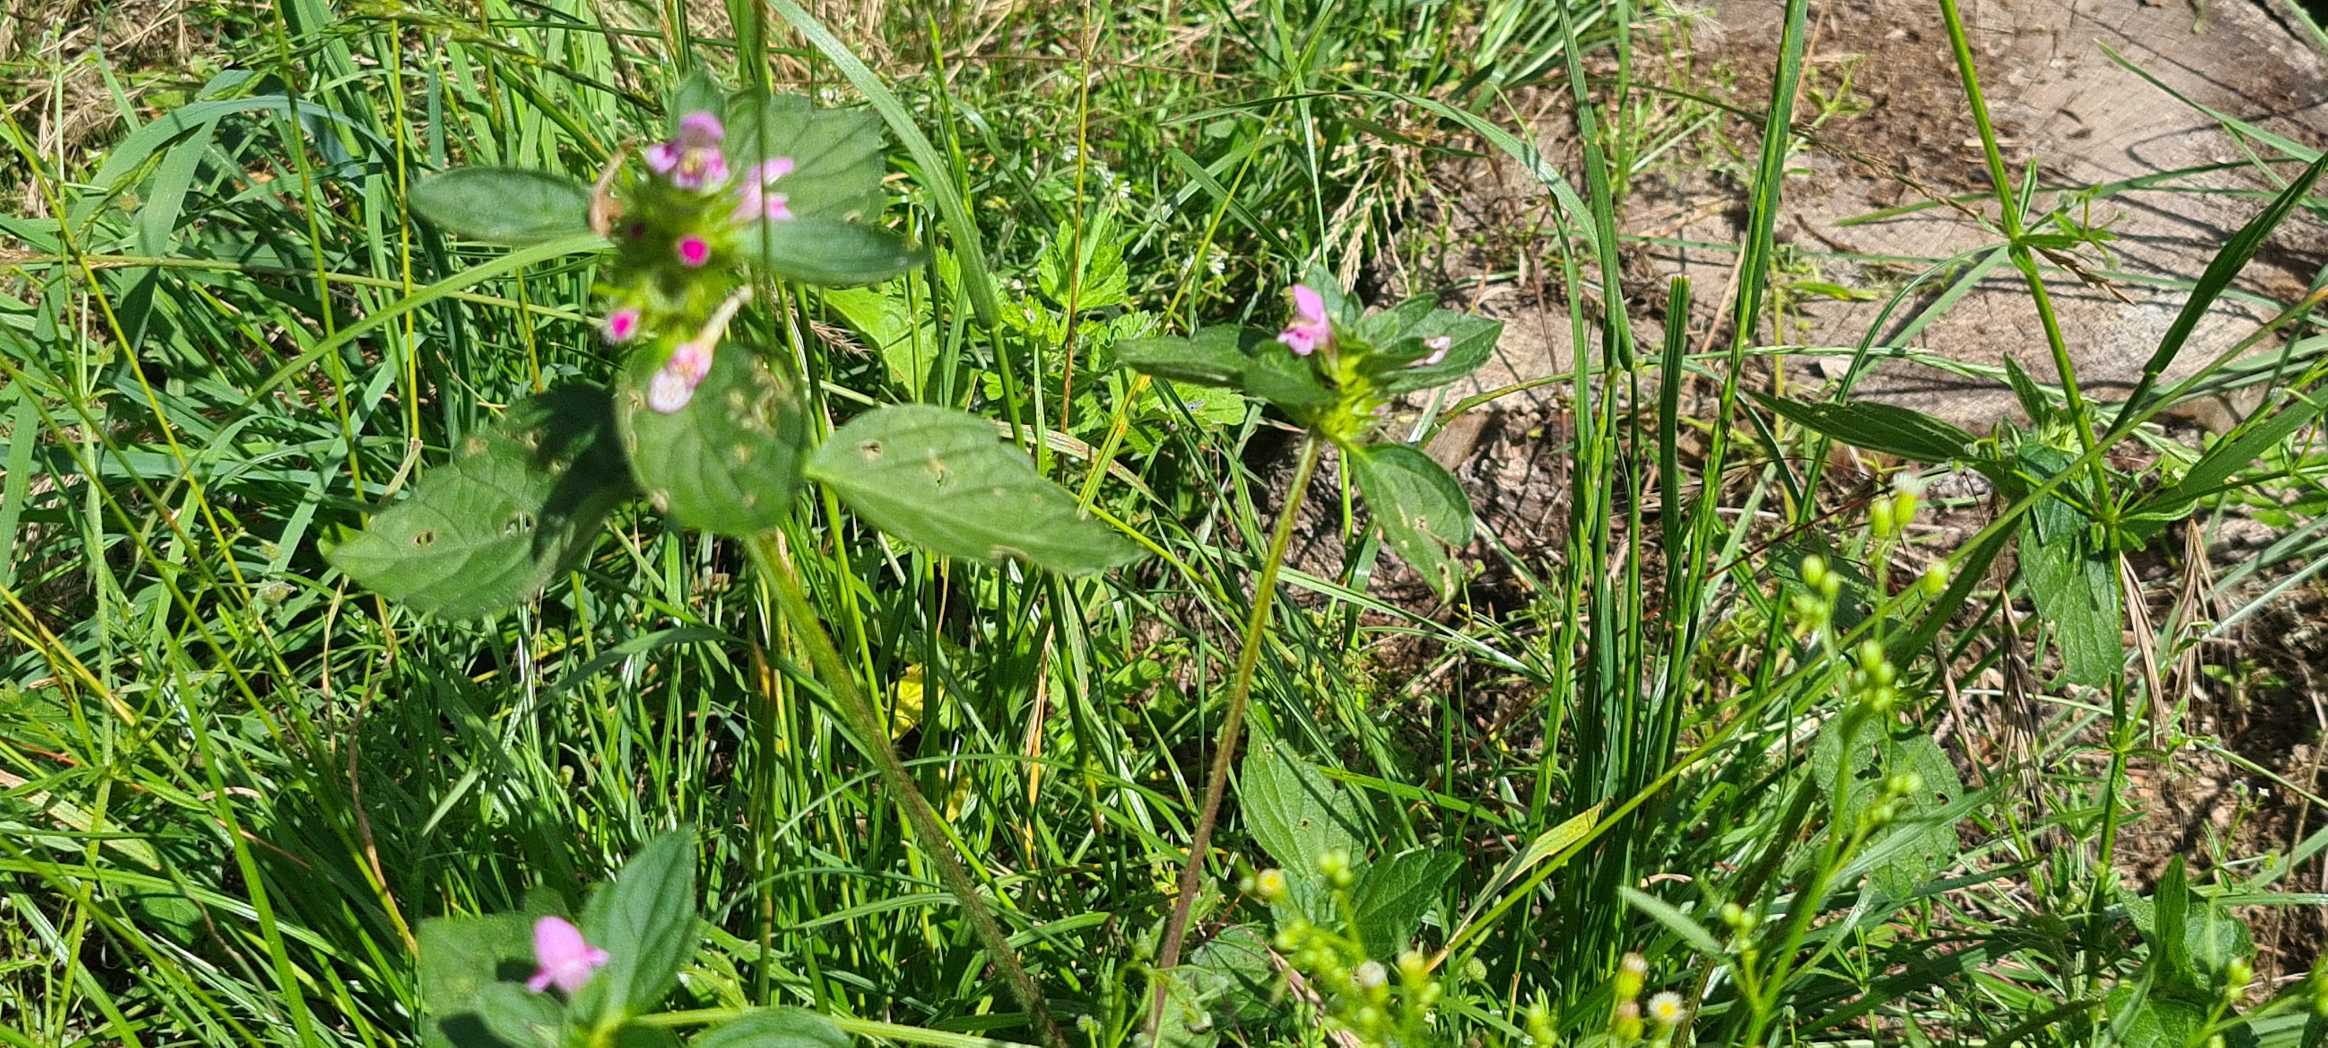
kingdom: Plantae
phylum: Tracheophyta
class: Magnoliopsida
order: Lamiales
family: Lamiaceae
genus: Galeopsis
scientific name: Galeopsis tetrahit
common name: Almindelig hanekro
